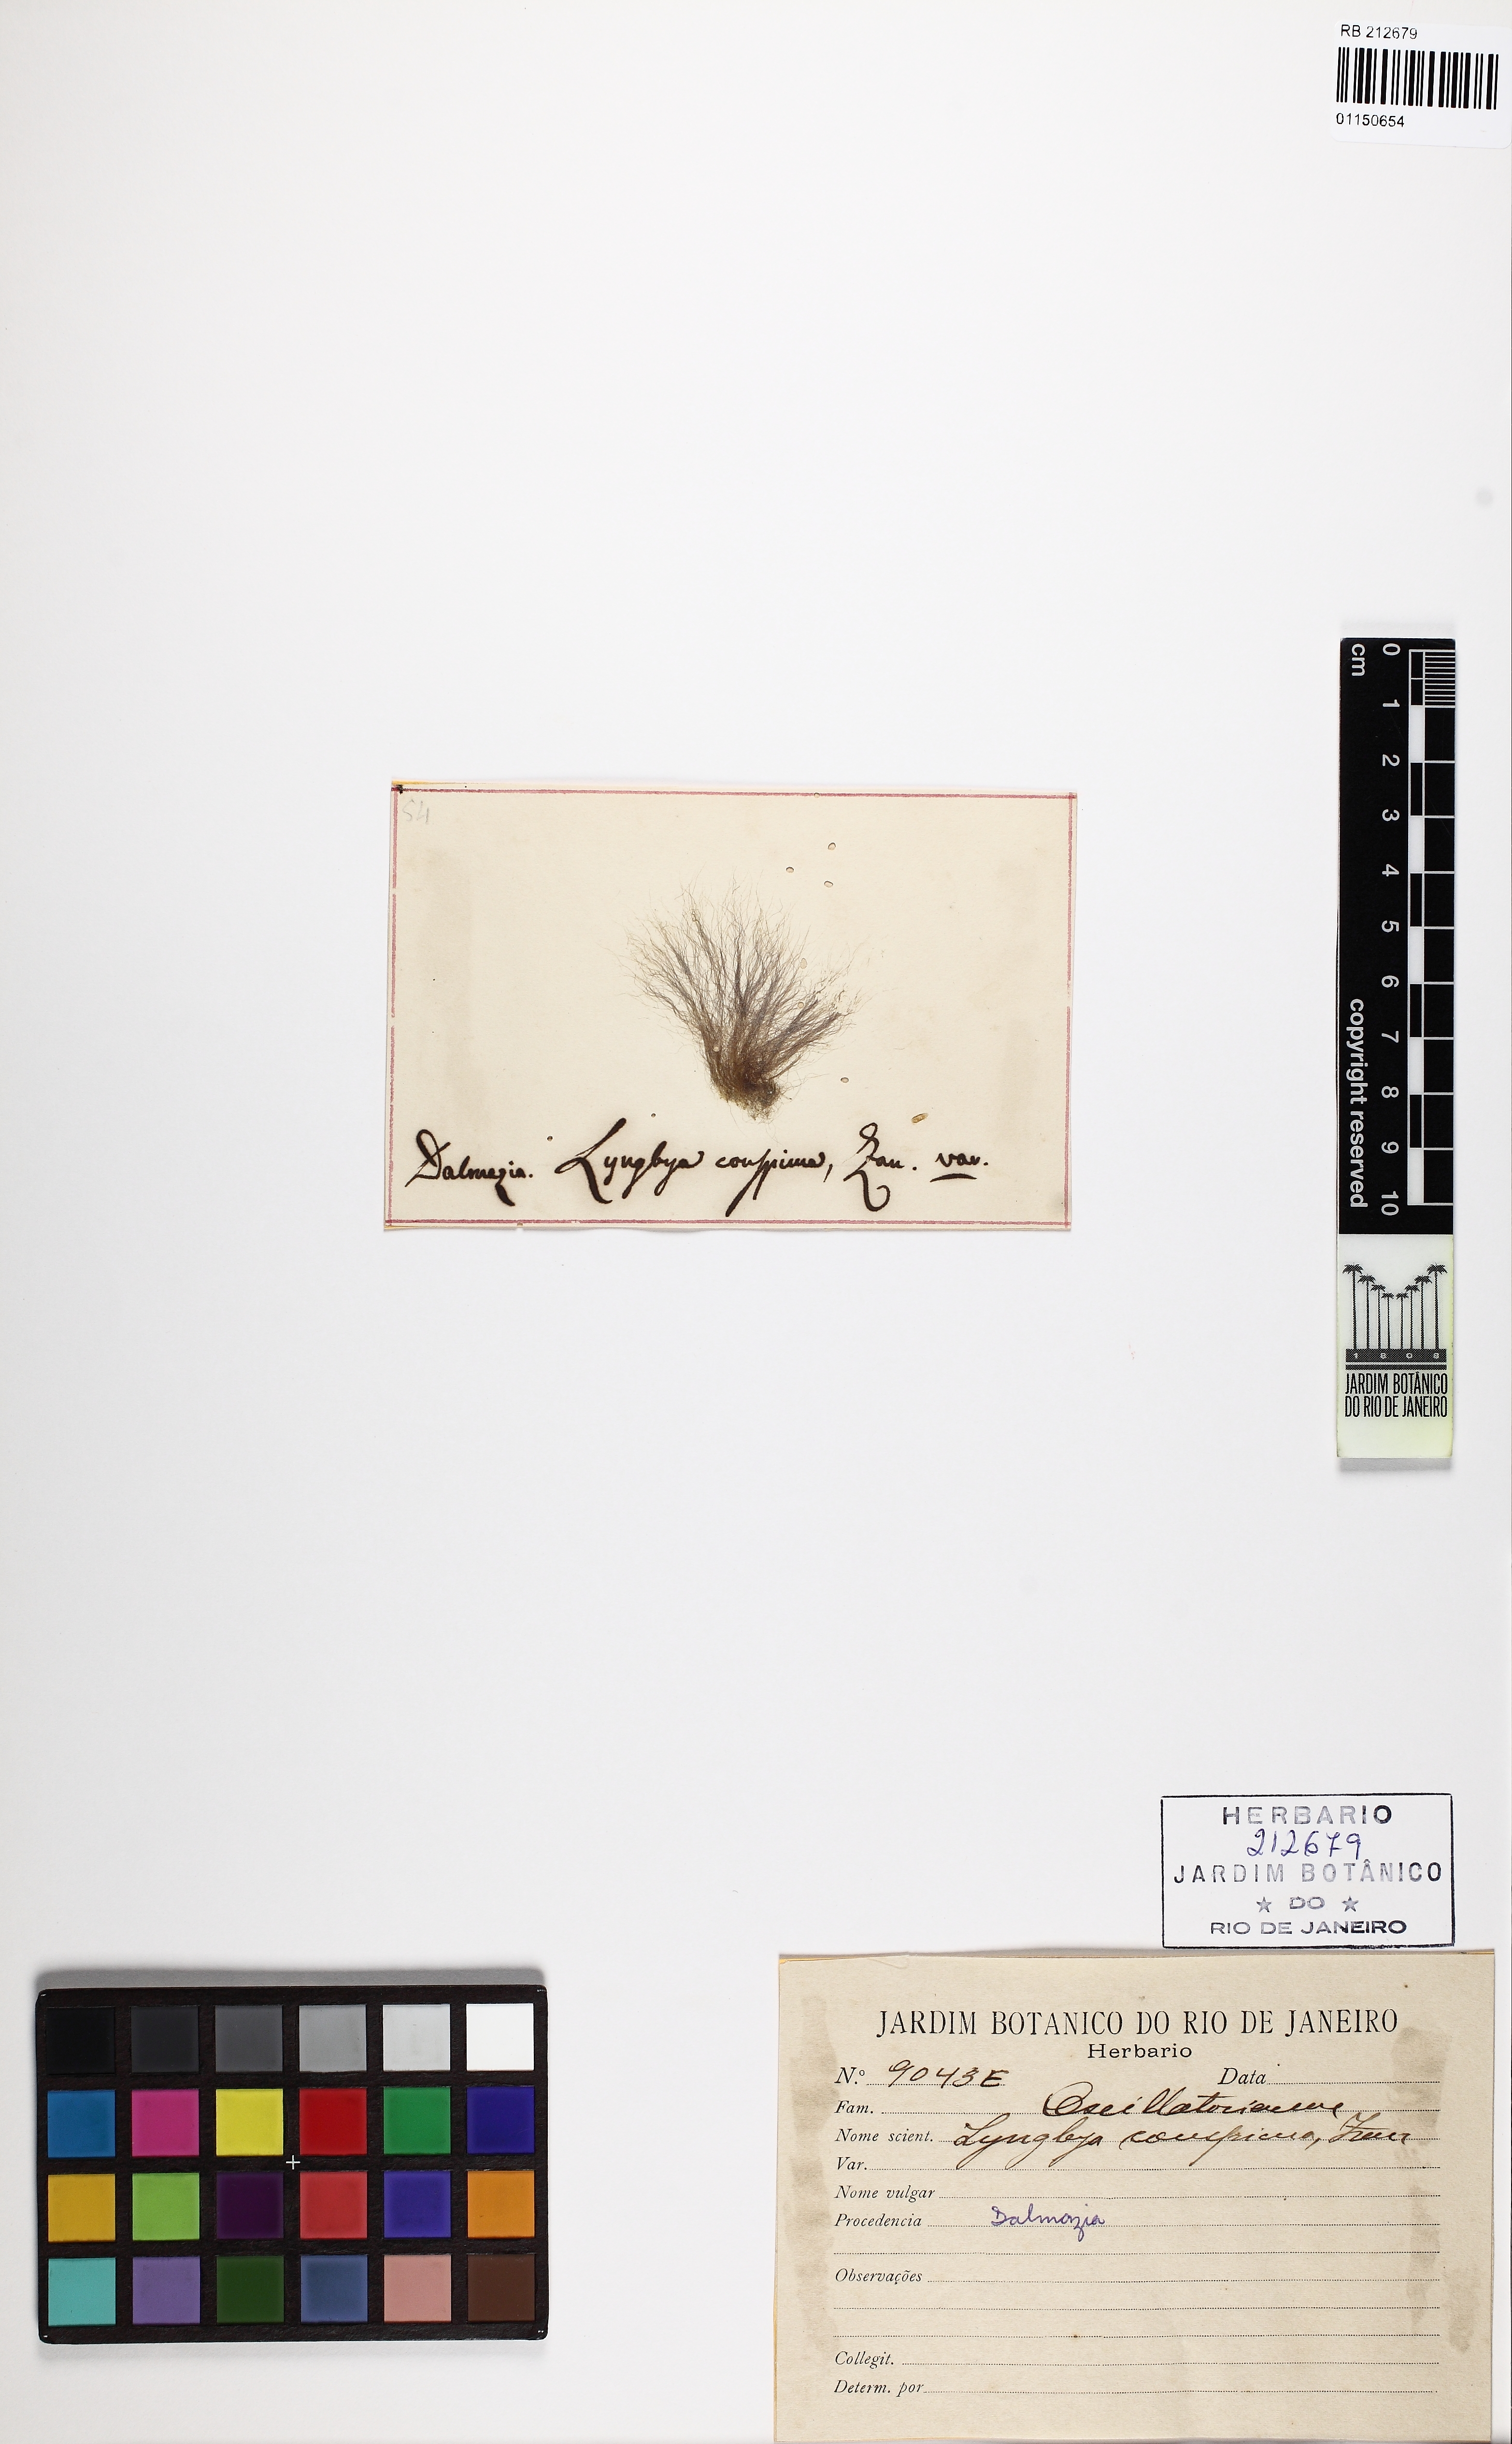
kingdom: Bacteria
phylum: Cyanobacteria
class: Cyanobacteriia
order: Cyanobacteriales
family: Oscillatoriaceae
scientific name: Oscillatoriaceae
